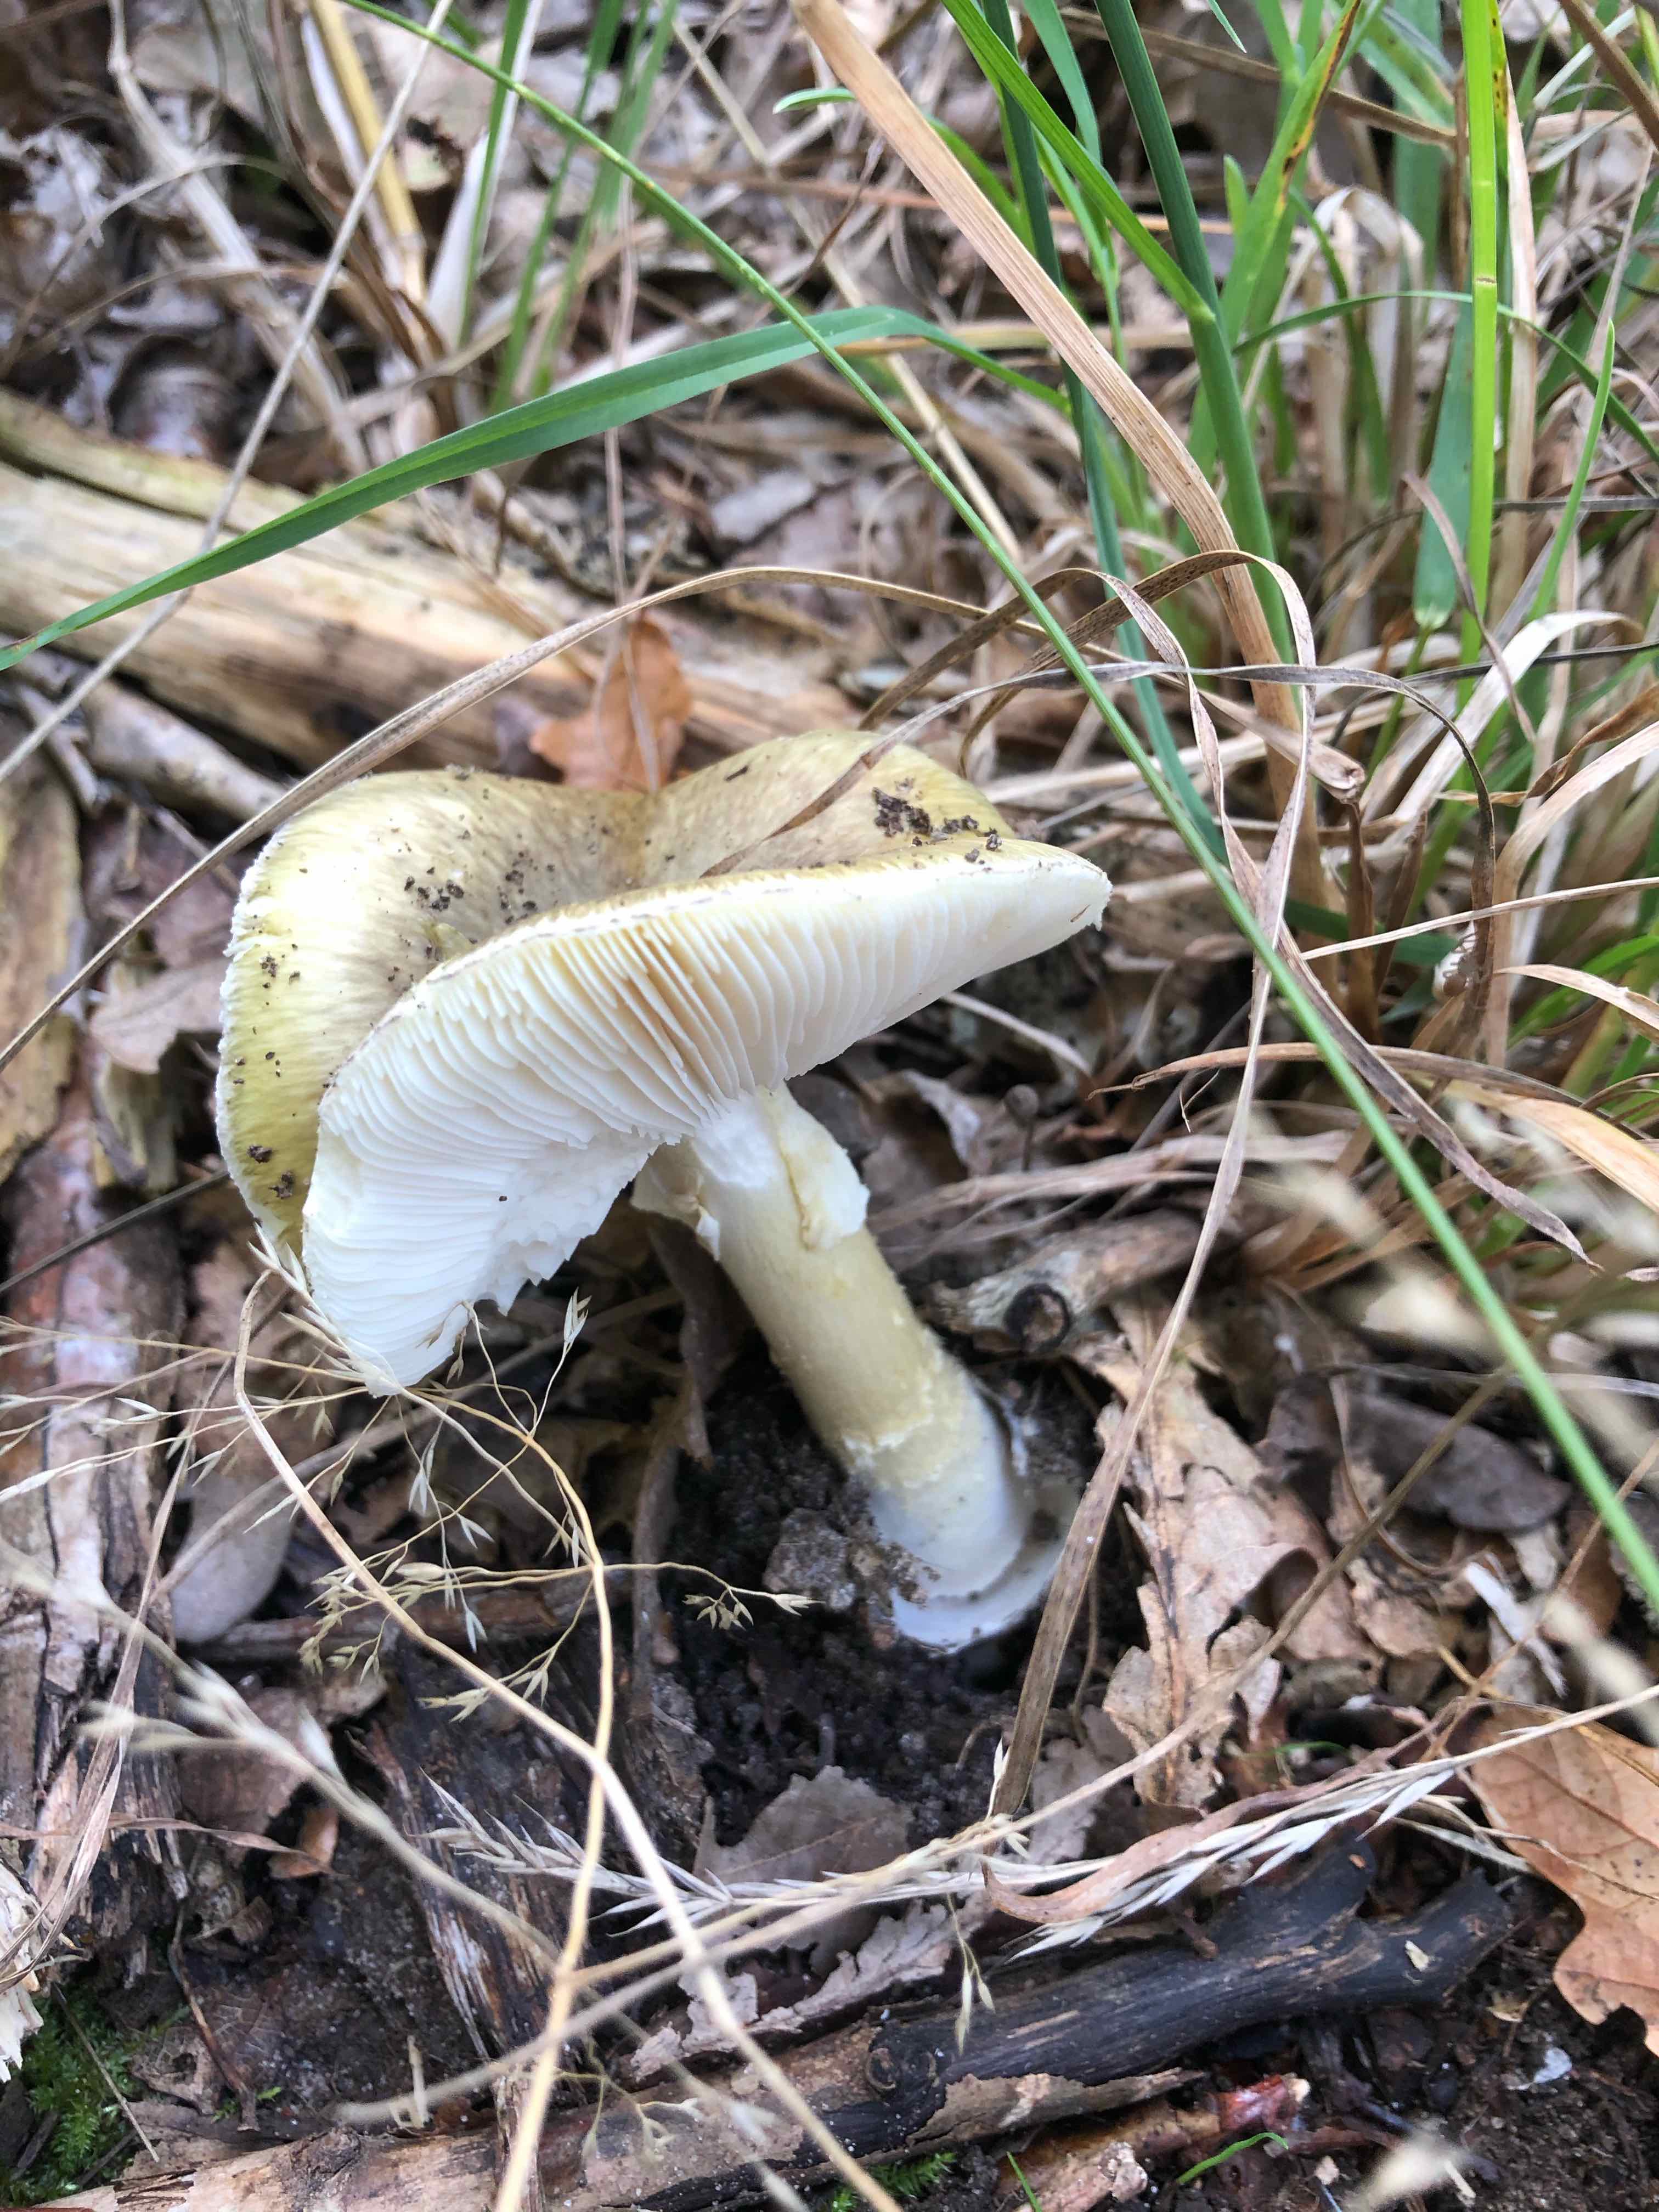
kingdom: Fungi
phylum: Basidiomycota
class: Agaricomycetes
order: Agaricales
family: Amanitaceae
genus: Amanita
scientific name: Amanita phalloides
